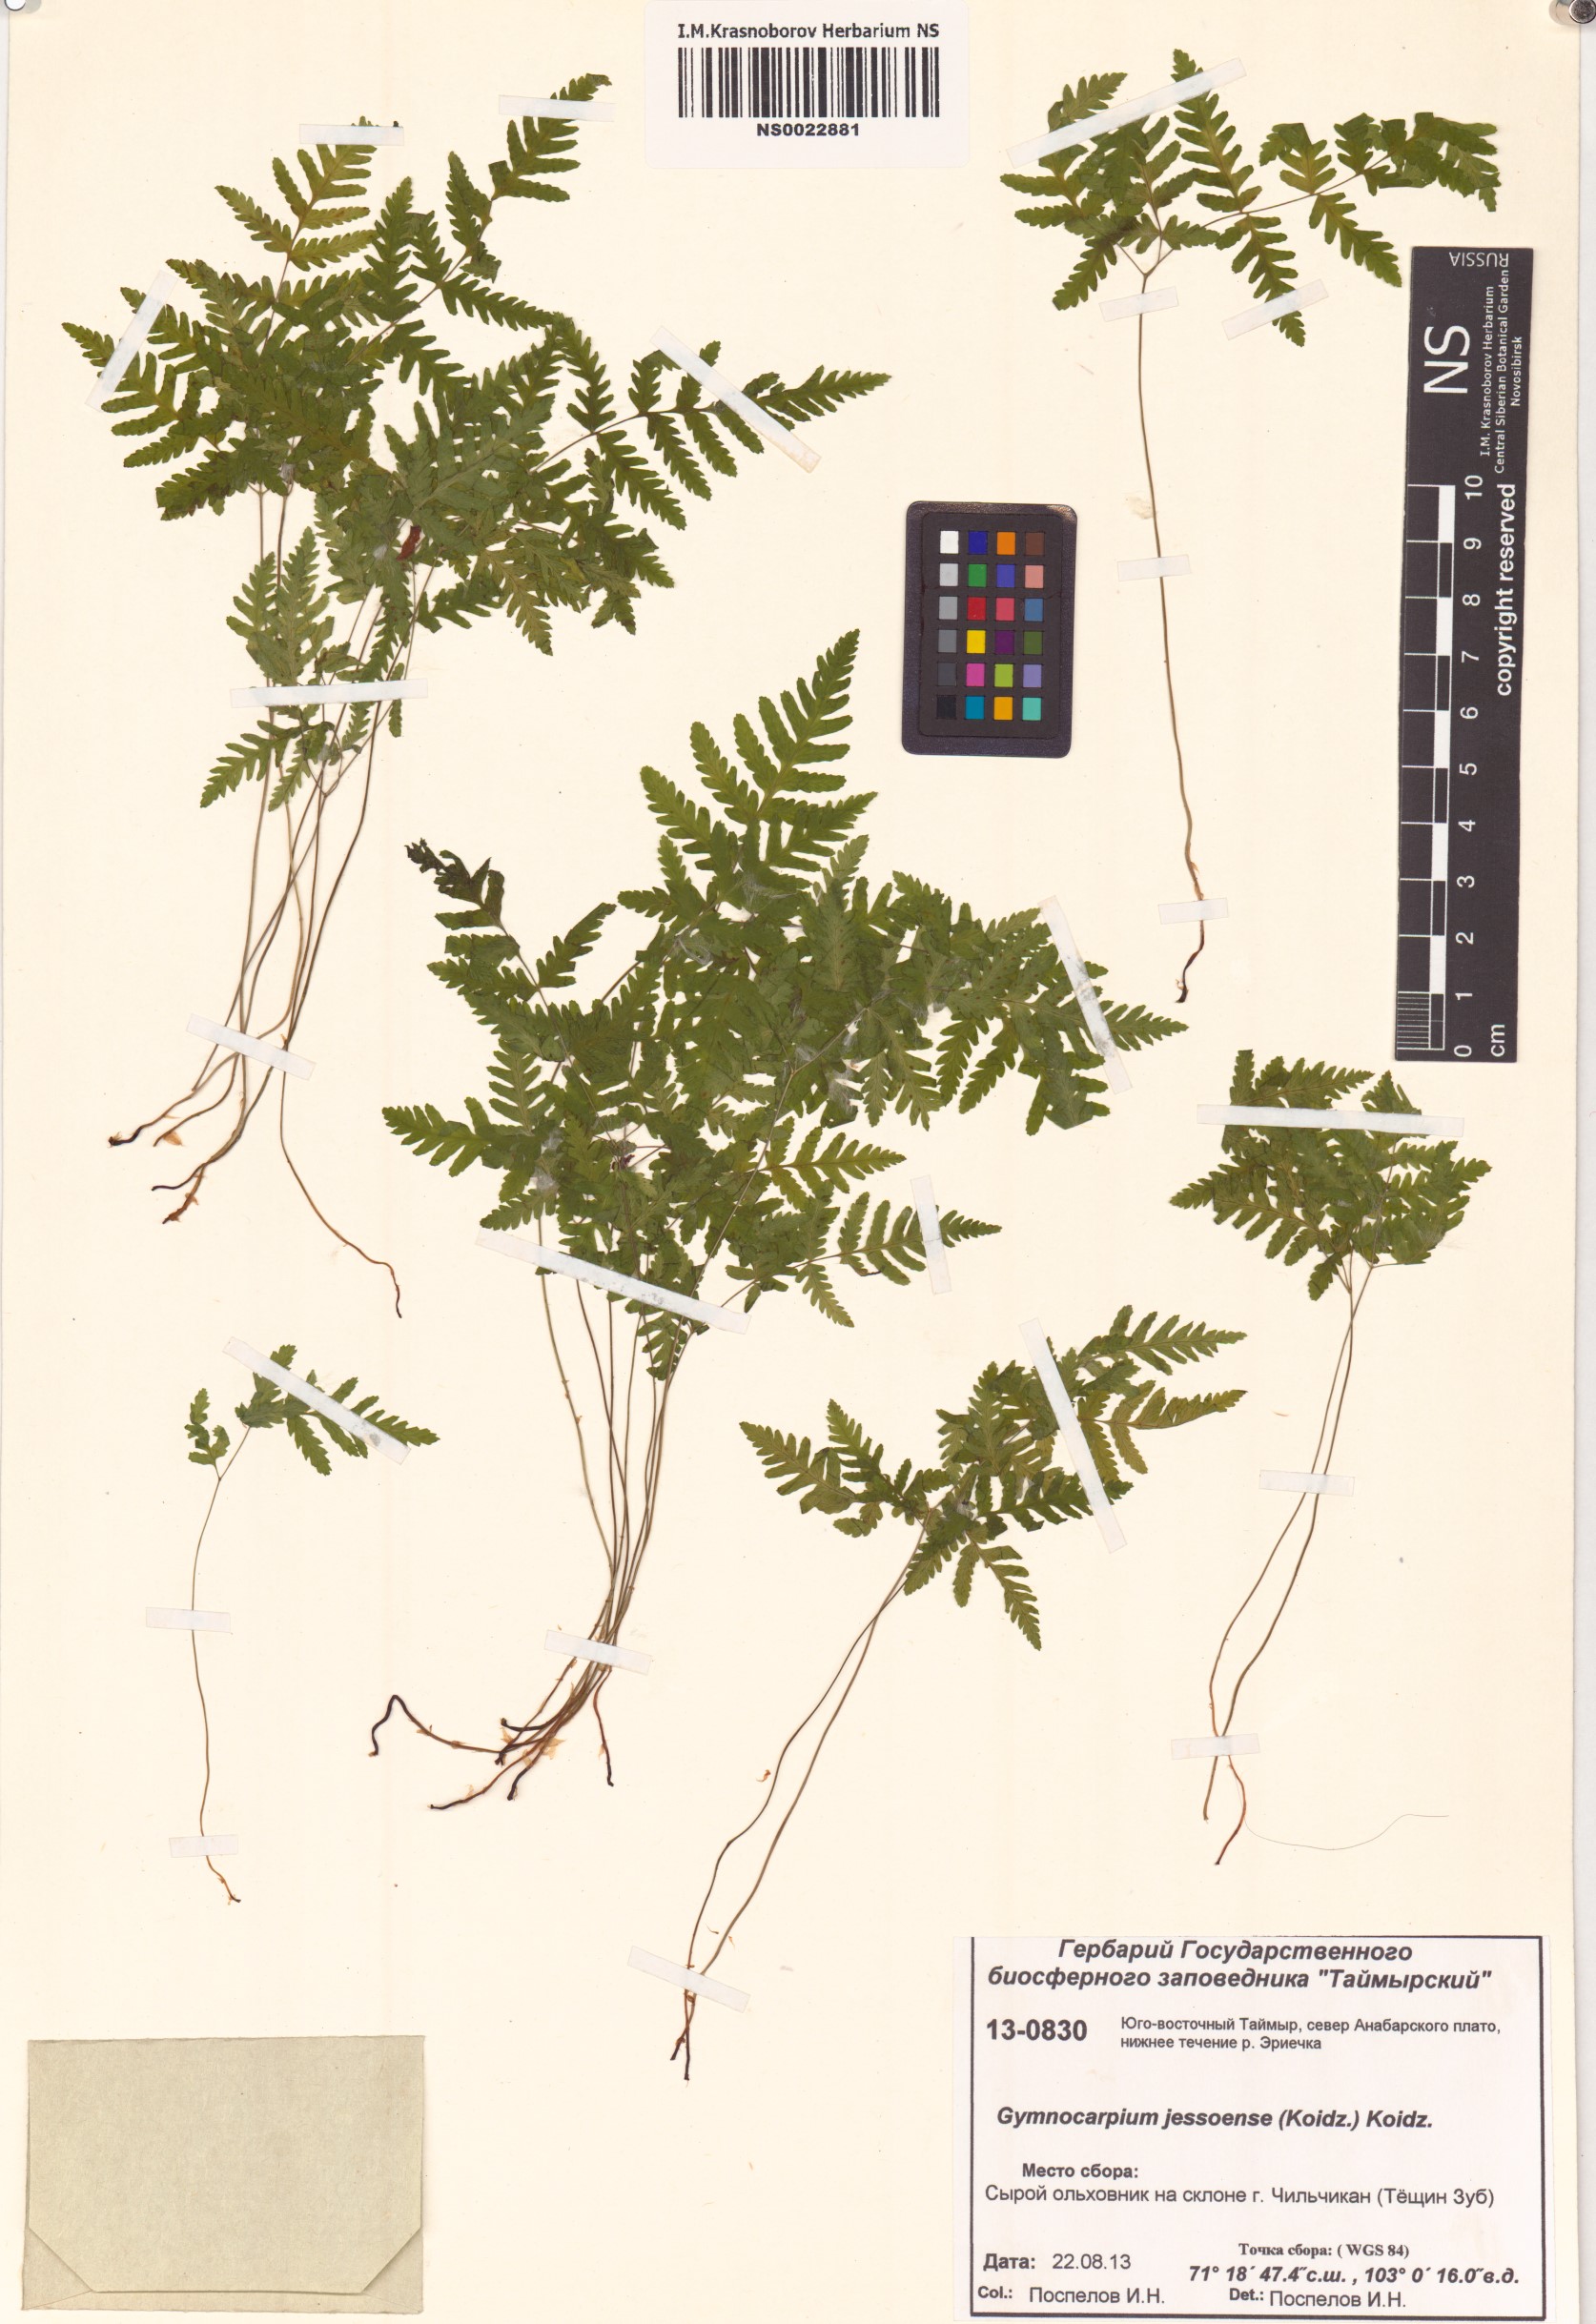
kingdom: Plantae
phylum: Tracheophyta
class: Polypodiopsida
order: Polypodiales
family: Cystopteridaceae
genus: Gymnocarpium
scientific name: Gymnocarpium jessoense
